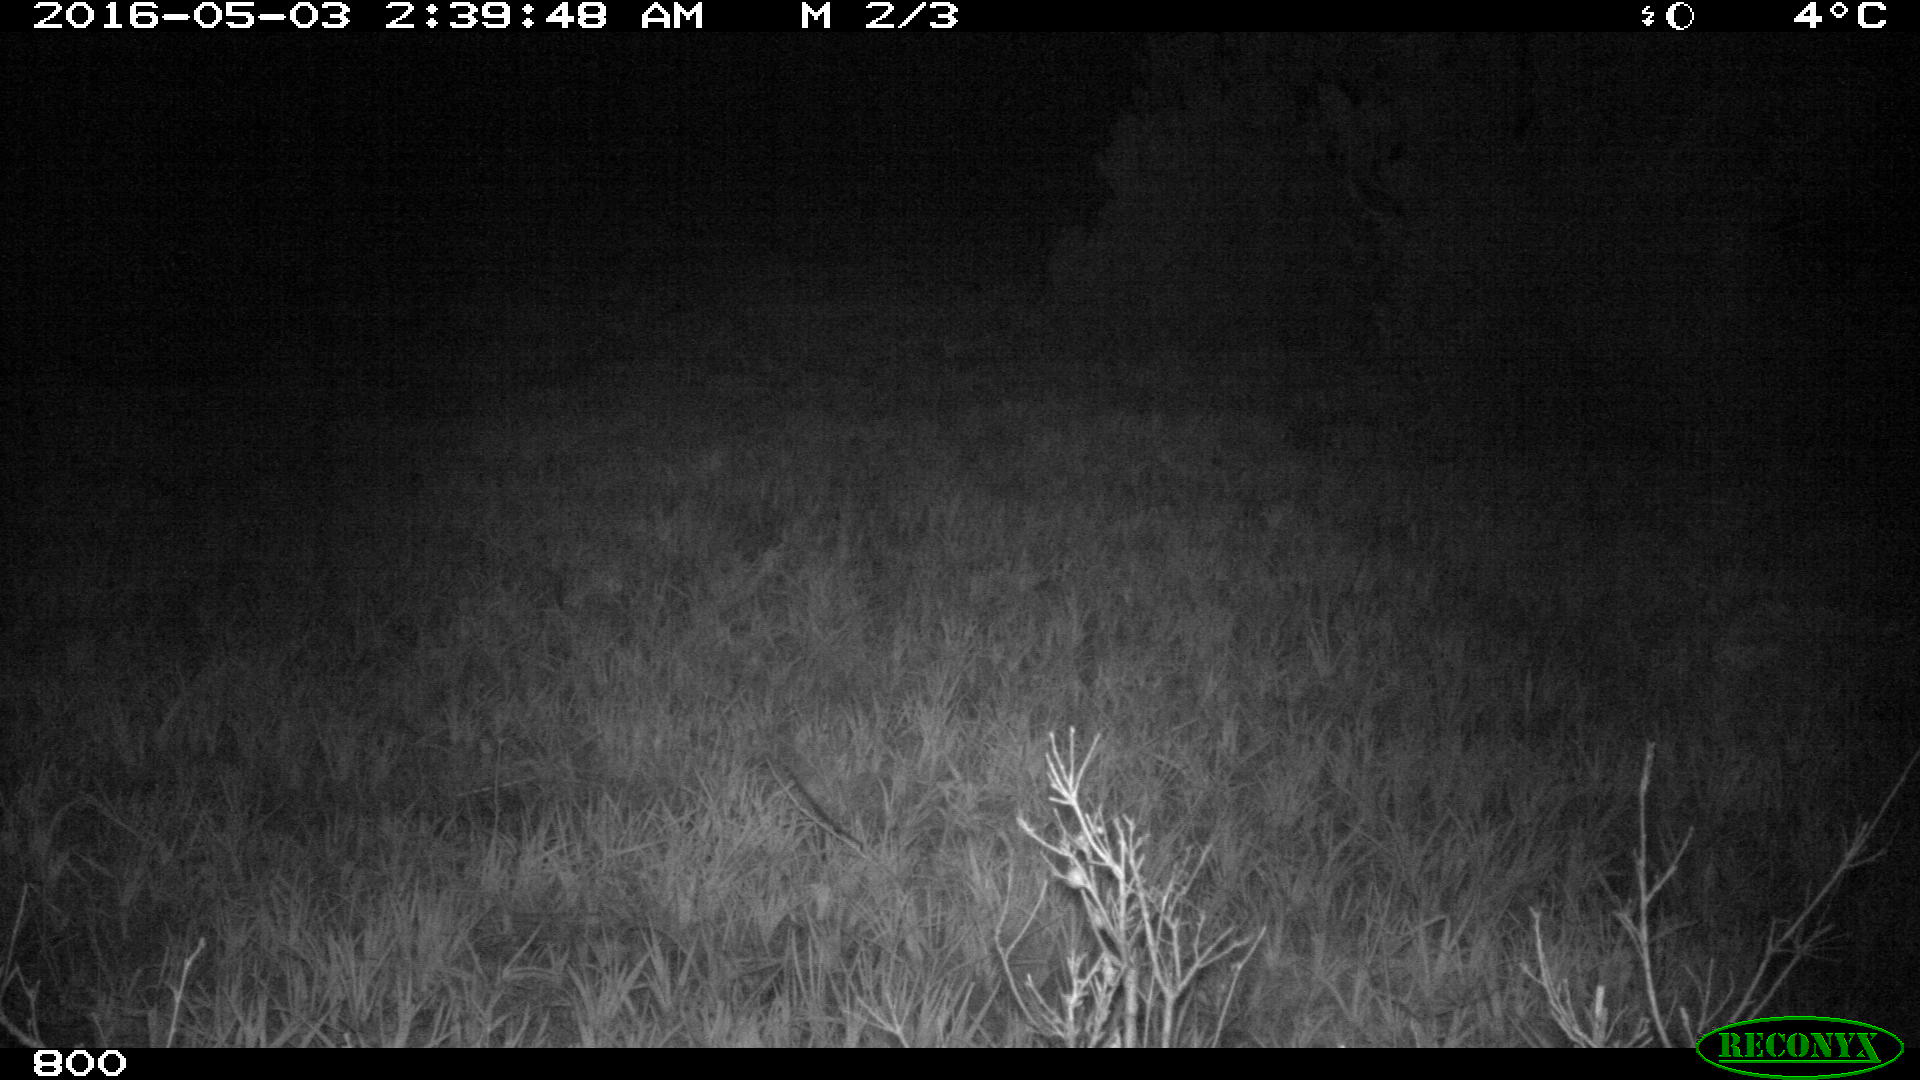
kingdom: Animalia
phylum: Chordata
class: Mammalia
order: Artiodactyla
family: Suidae
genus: Sus
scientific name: Sus scrofa
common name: Wild boar
